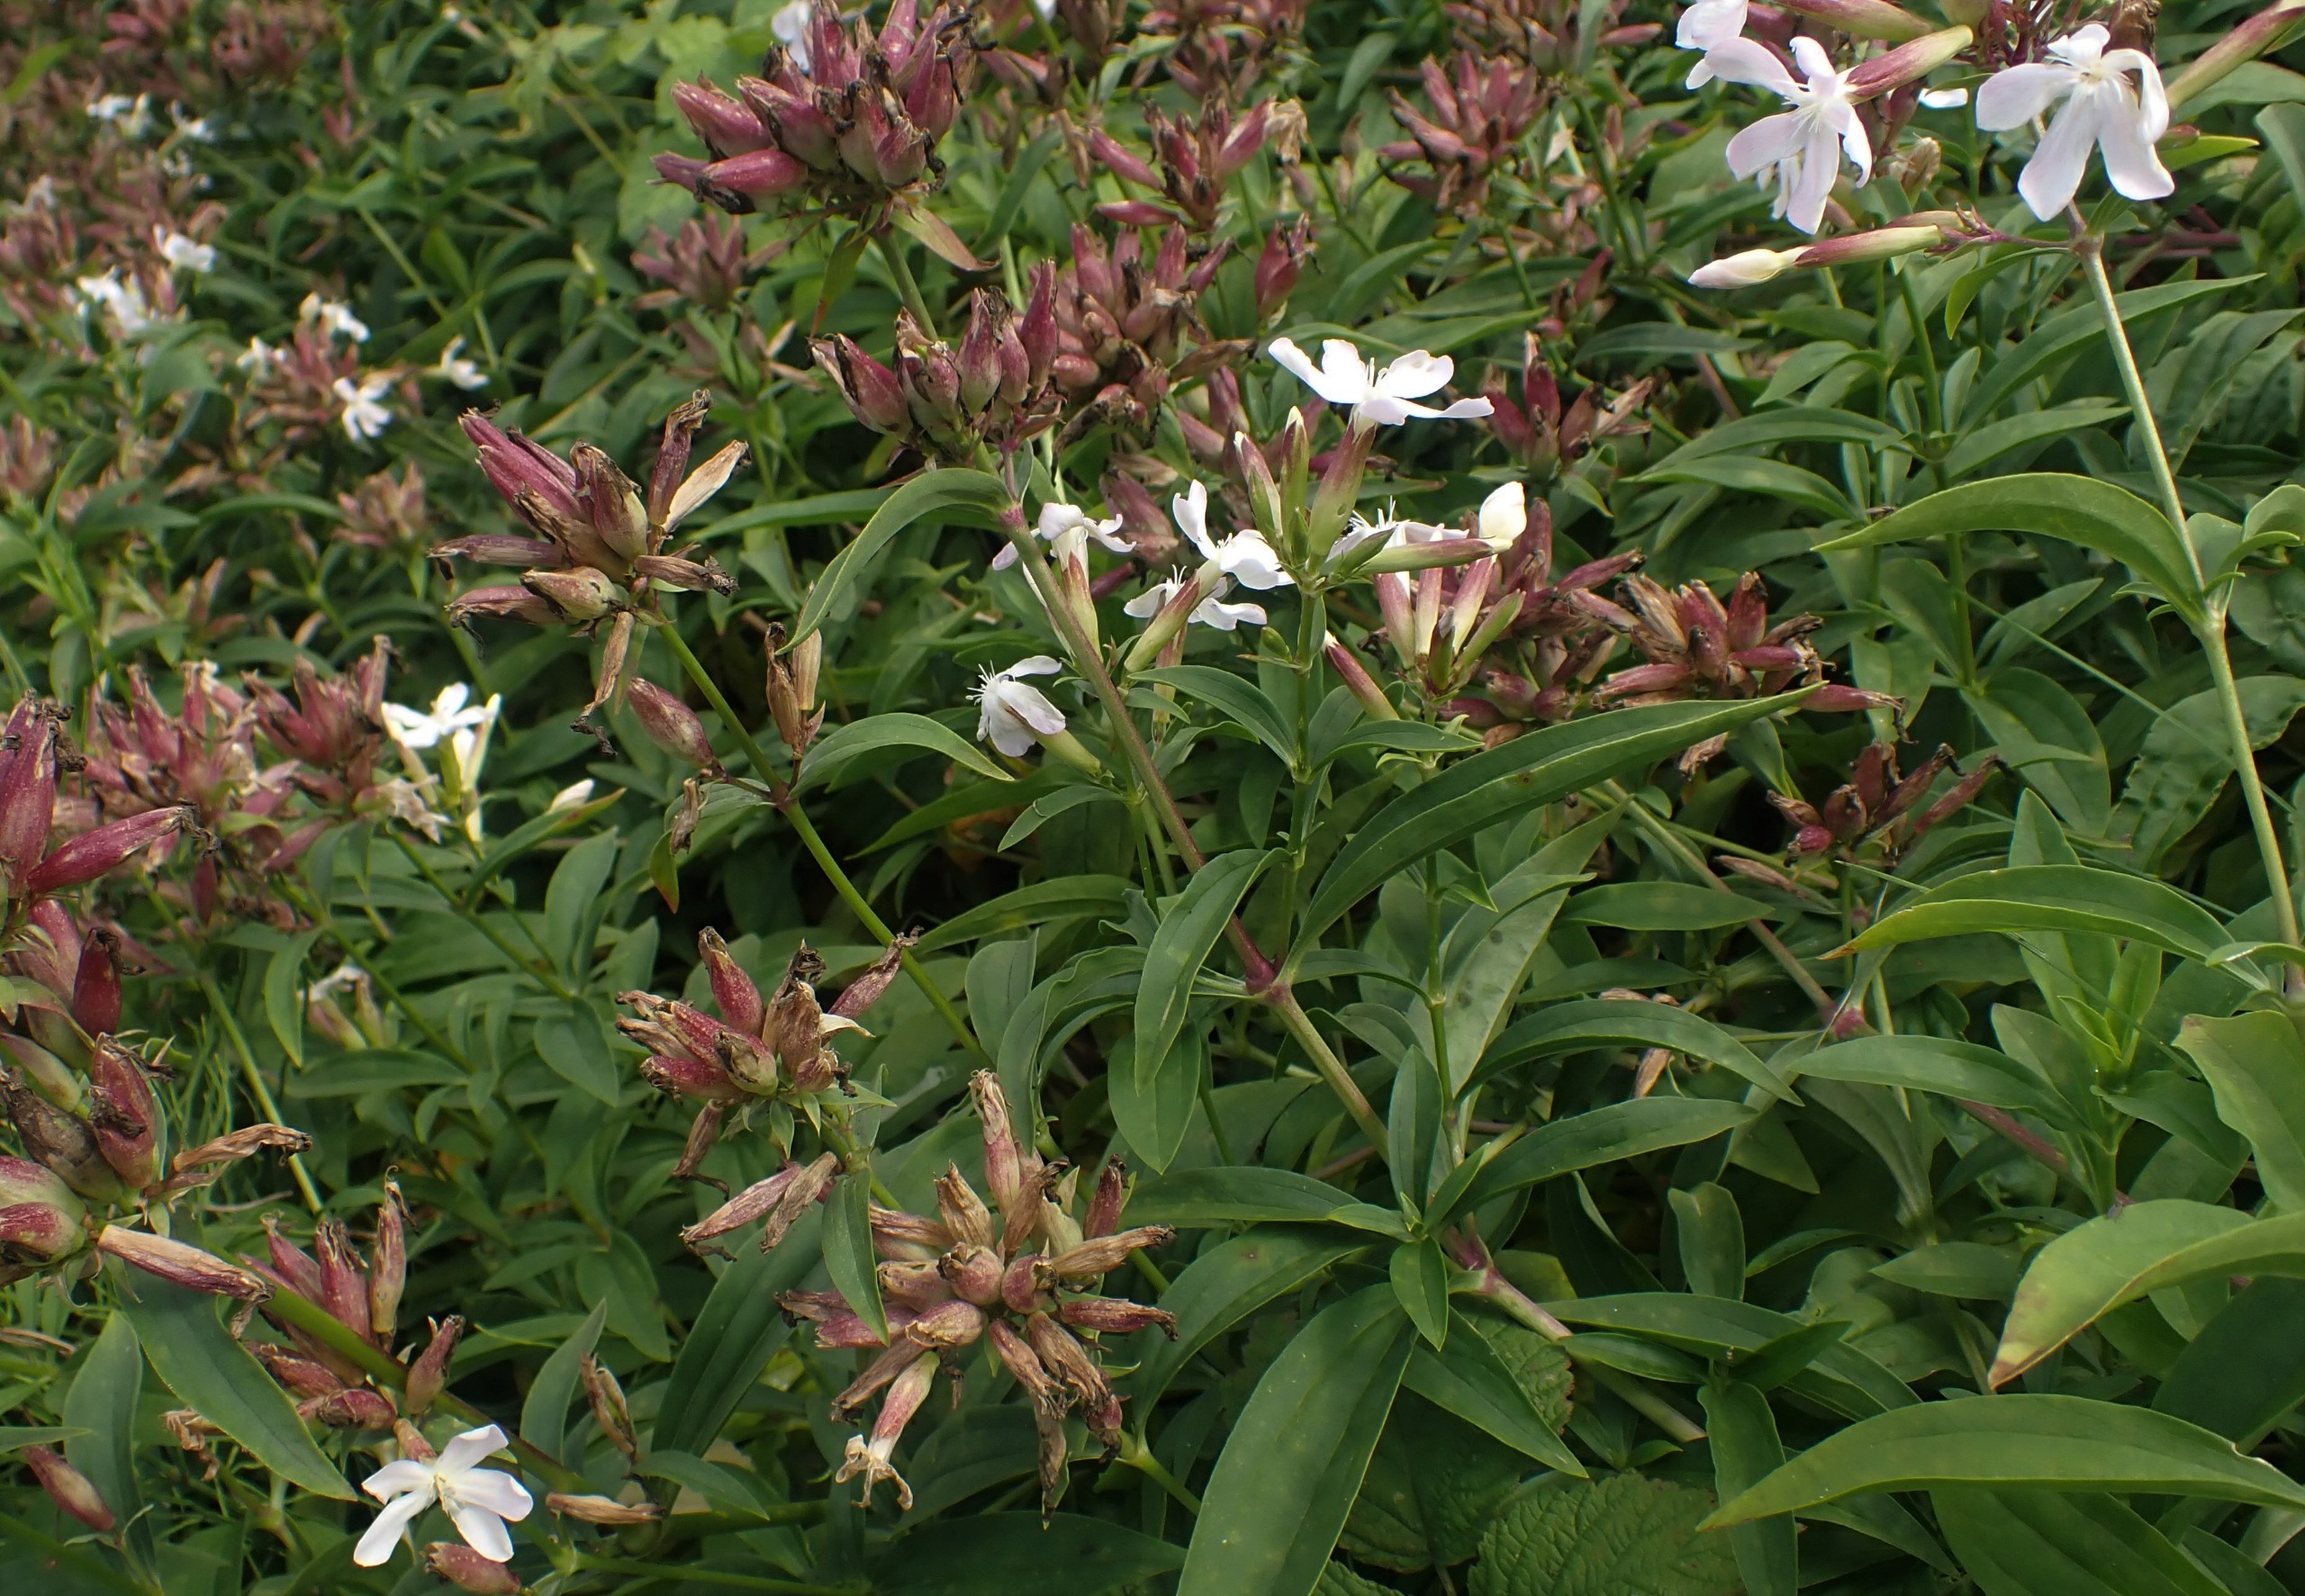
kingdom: Plantae
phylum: Tracheophyta
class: Magnoliopsida
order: Caryophyllales
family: Caryophyllaceae
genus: Saponaria
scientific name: Saponaria officinalis
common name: Sæbeurt
